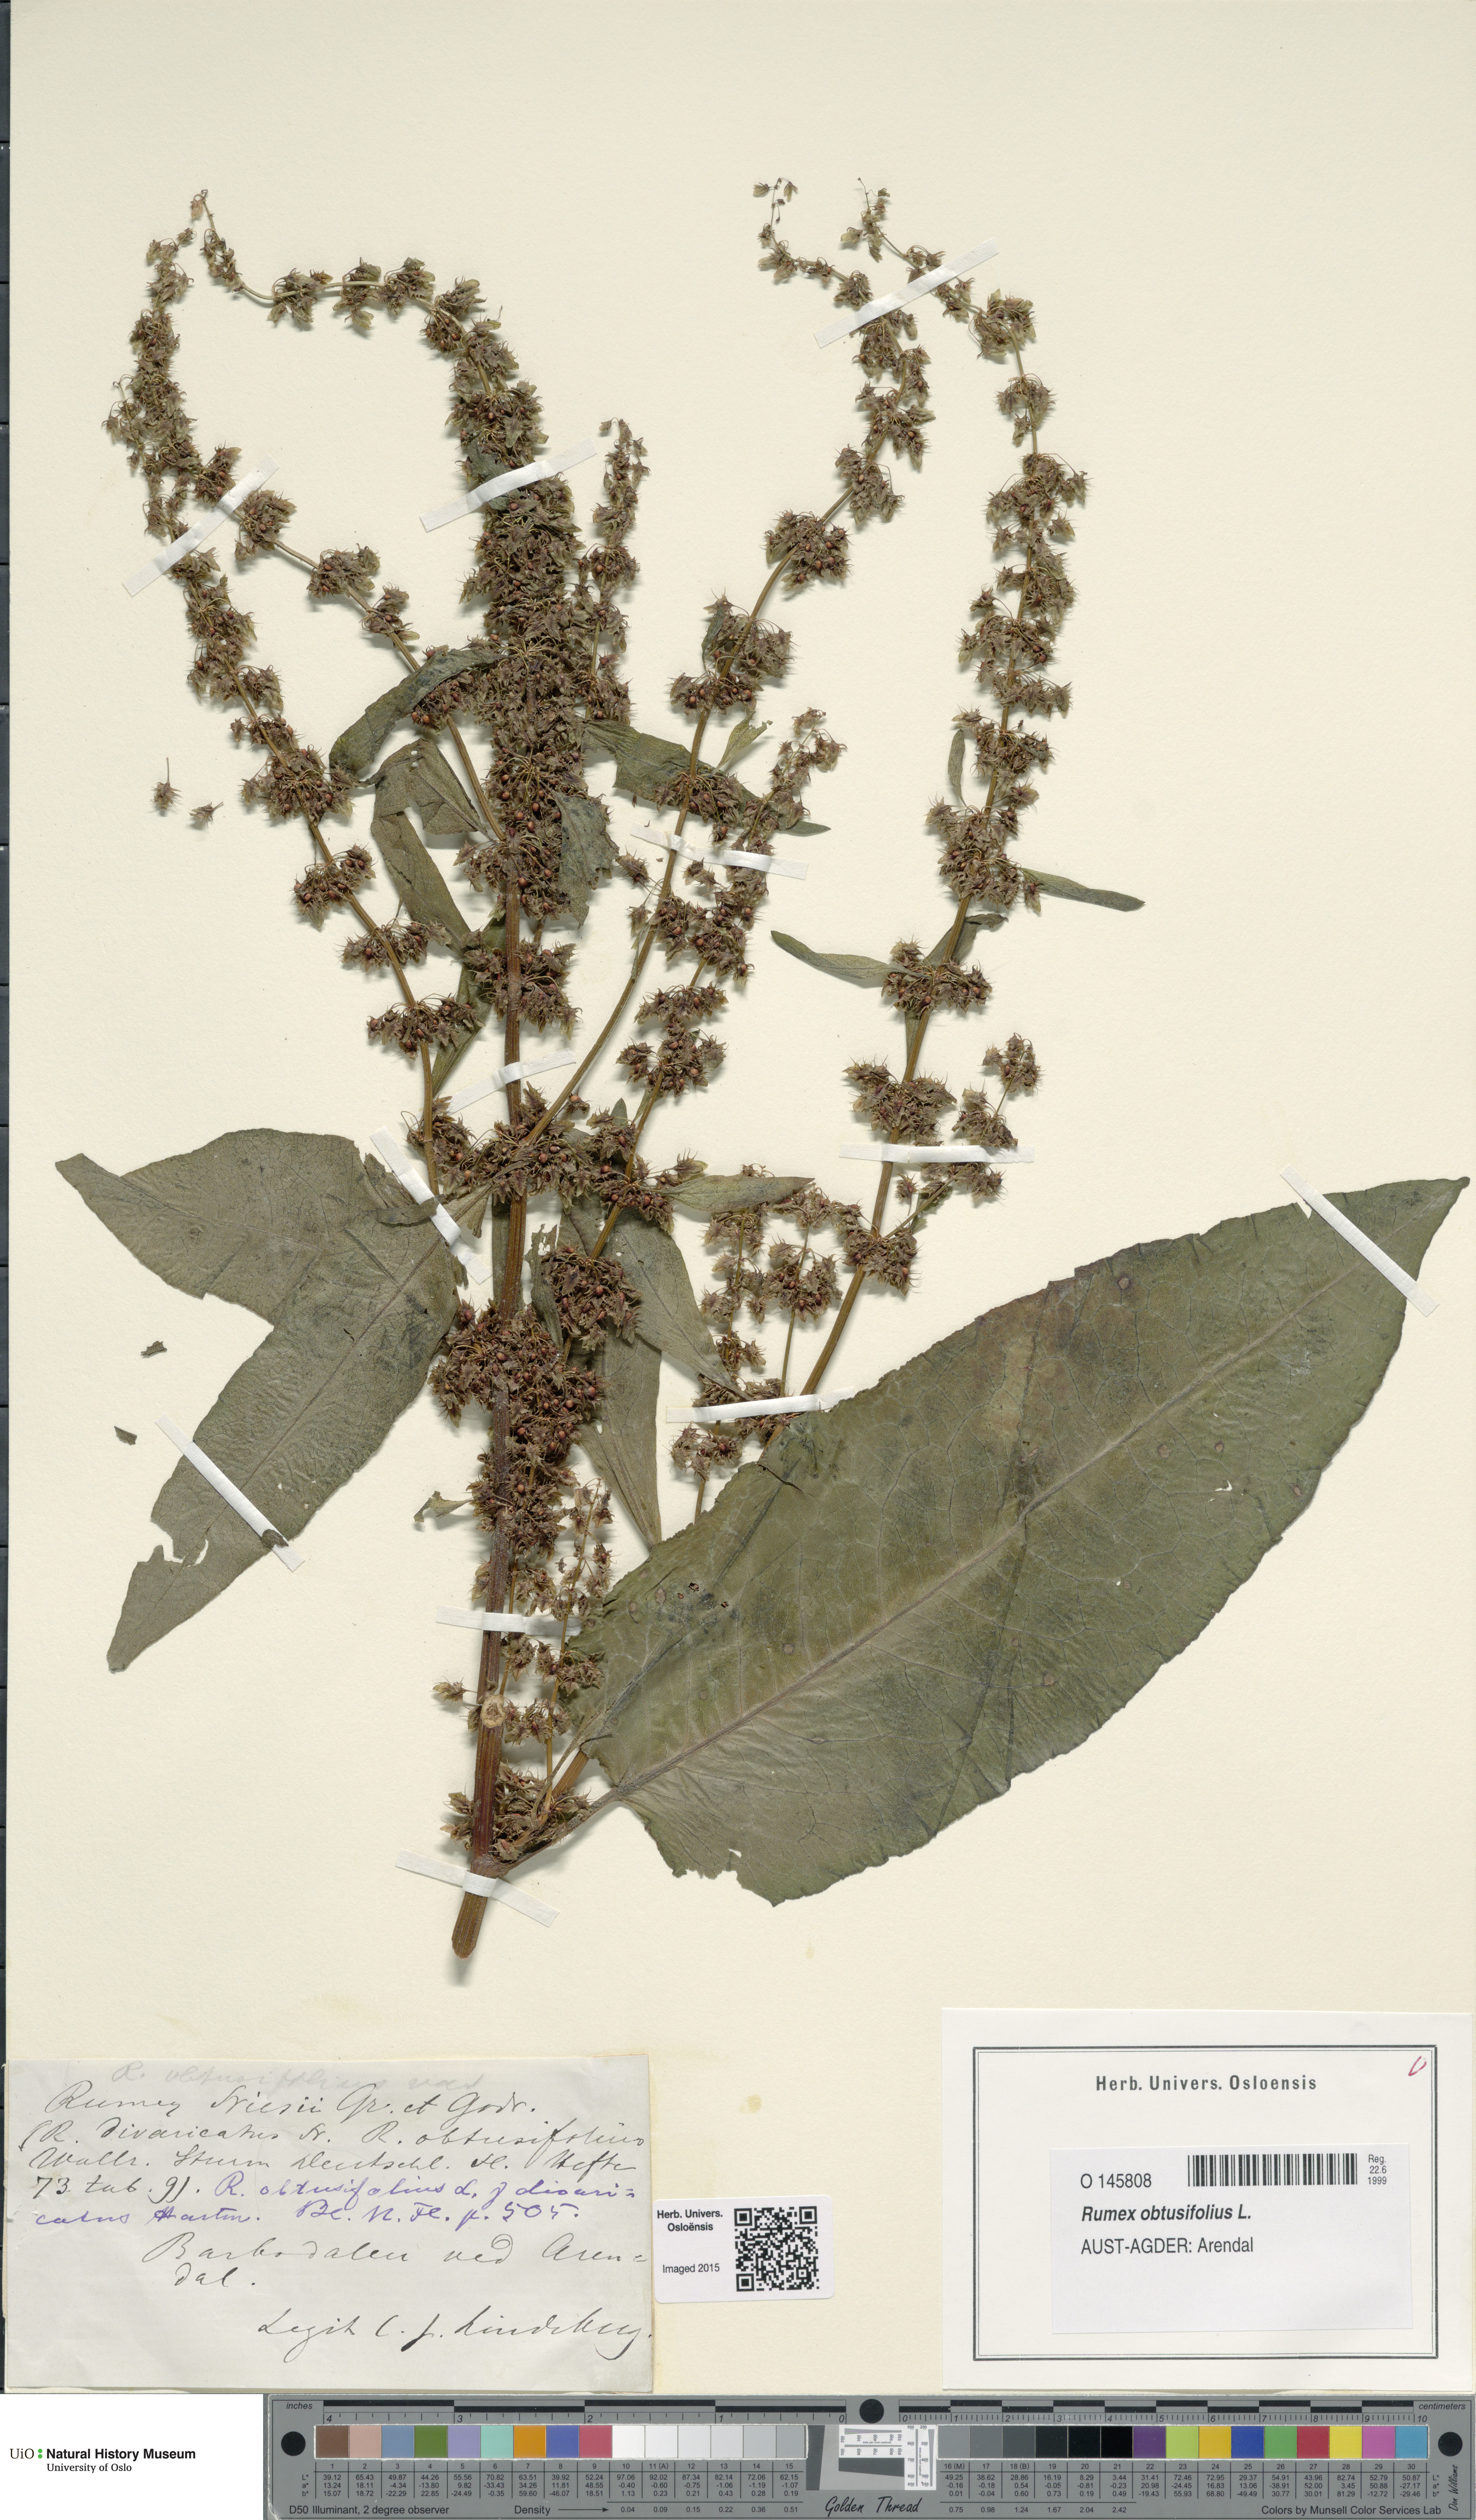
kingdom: Plantae
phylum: Tracheophyta
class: Magnoliopsida
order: Caryophyllales
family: Polygonaceae
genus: Rumex
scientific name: Rumex obtusifolius
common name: Bitter dock
